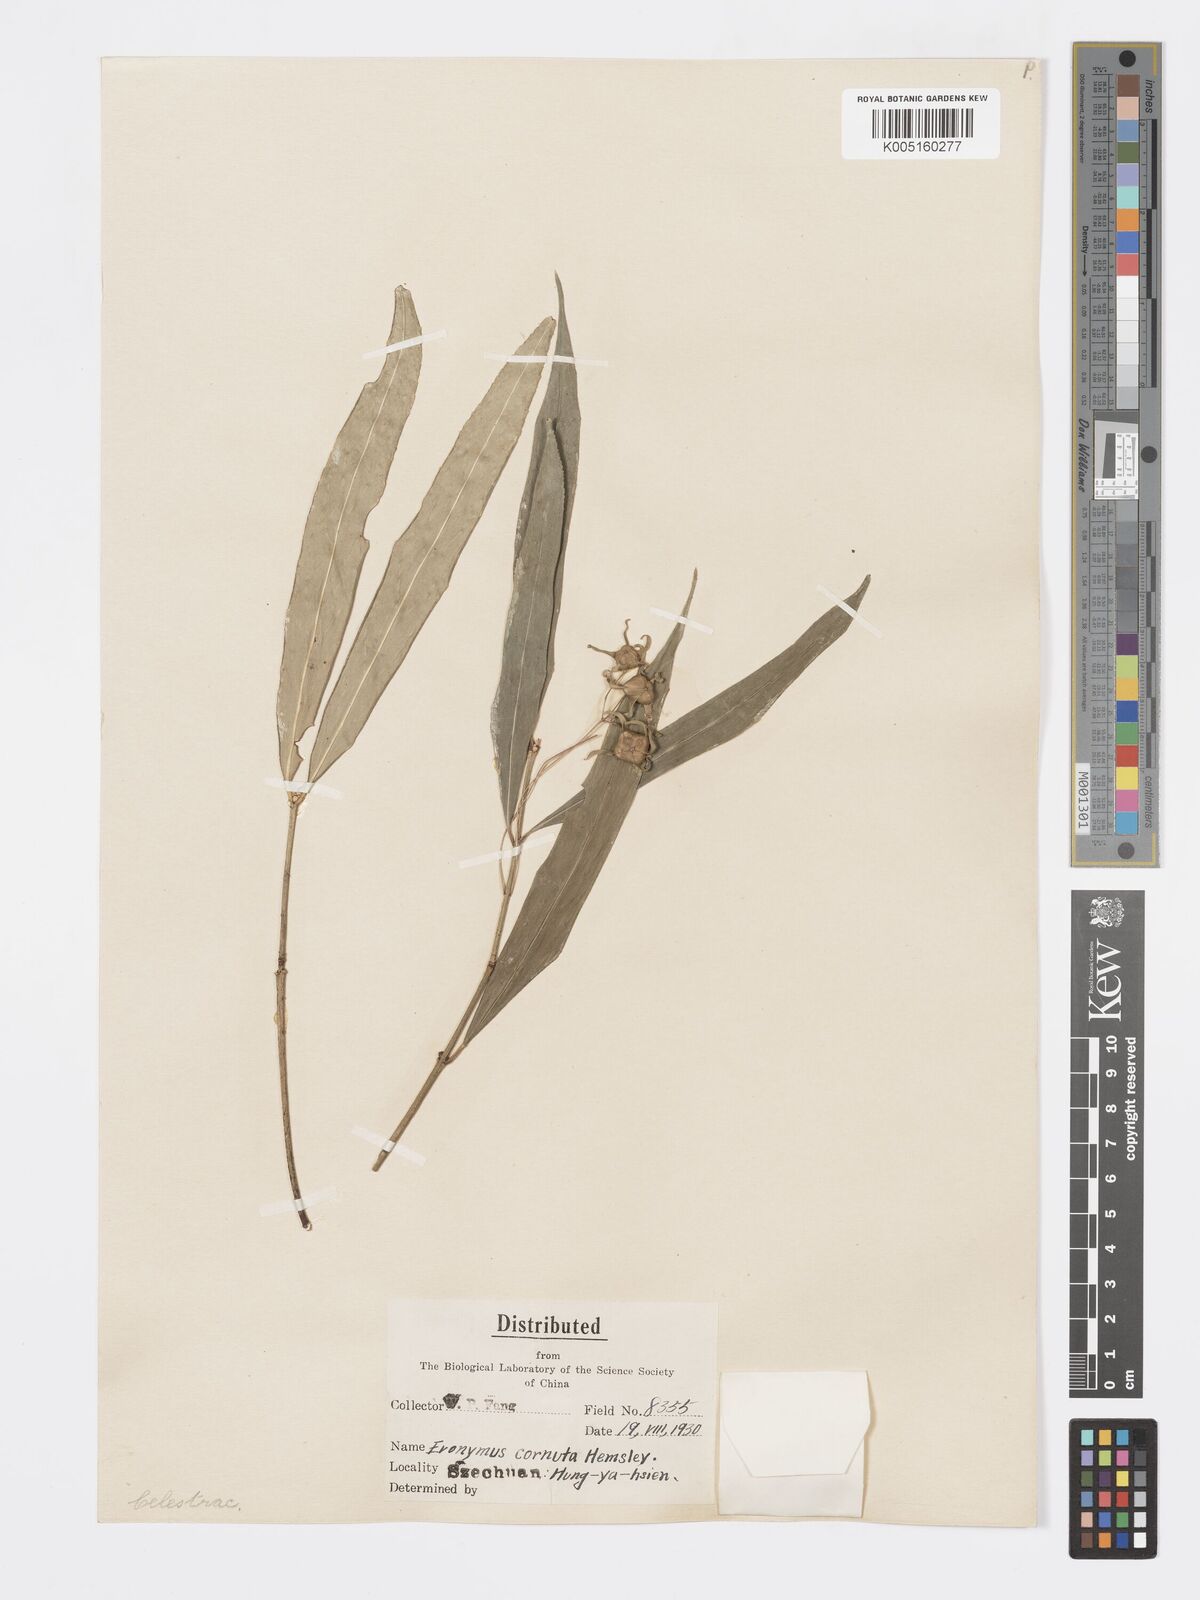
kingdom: Plantae
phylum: Tracheophyta
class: Magnoliopsida
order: Celastrales
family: Celastraceae
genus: Euonymus
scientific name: Euonymus cornutus
